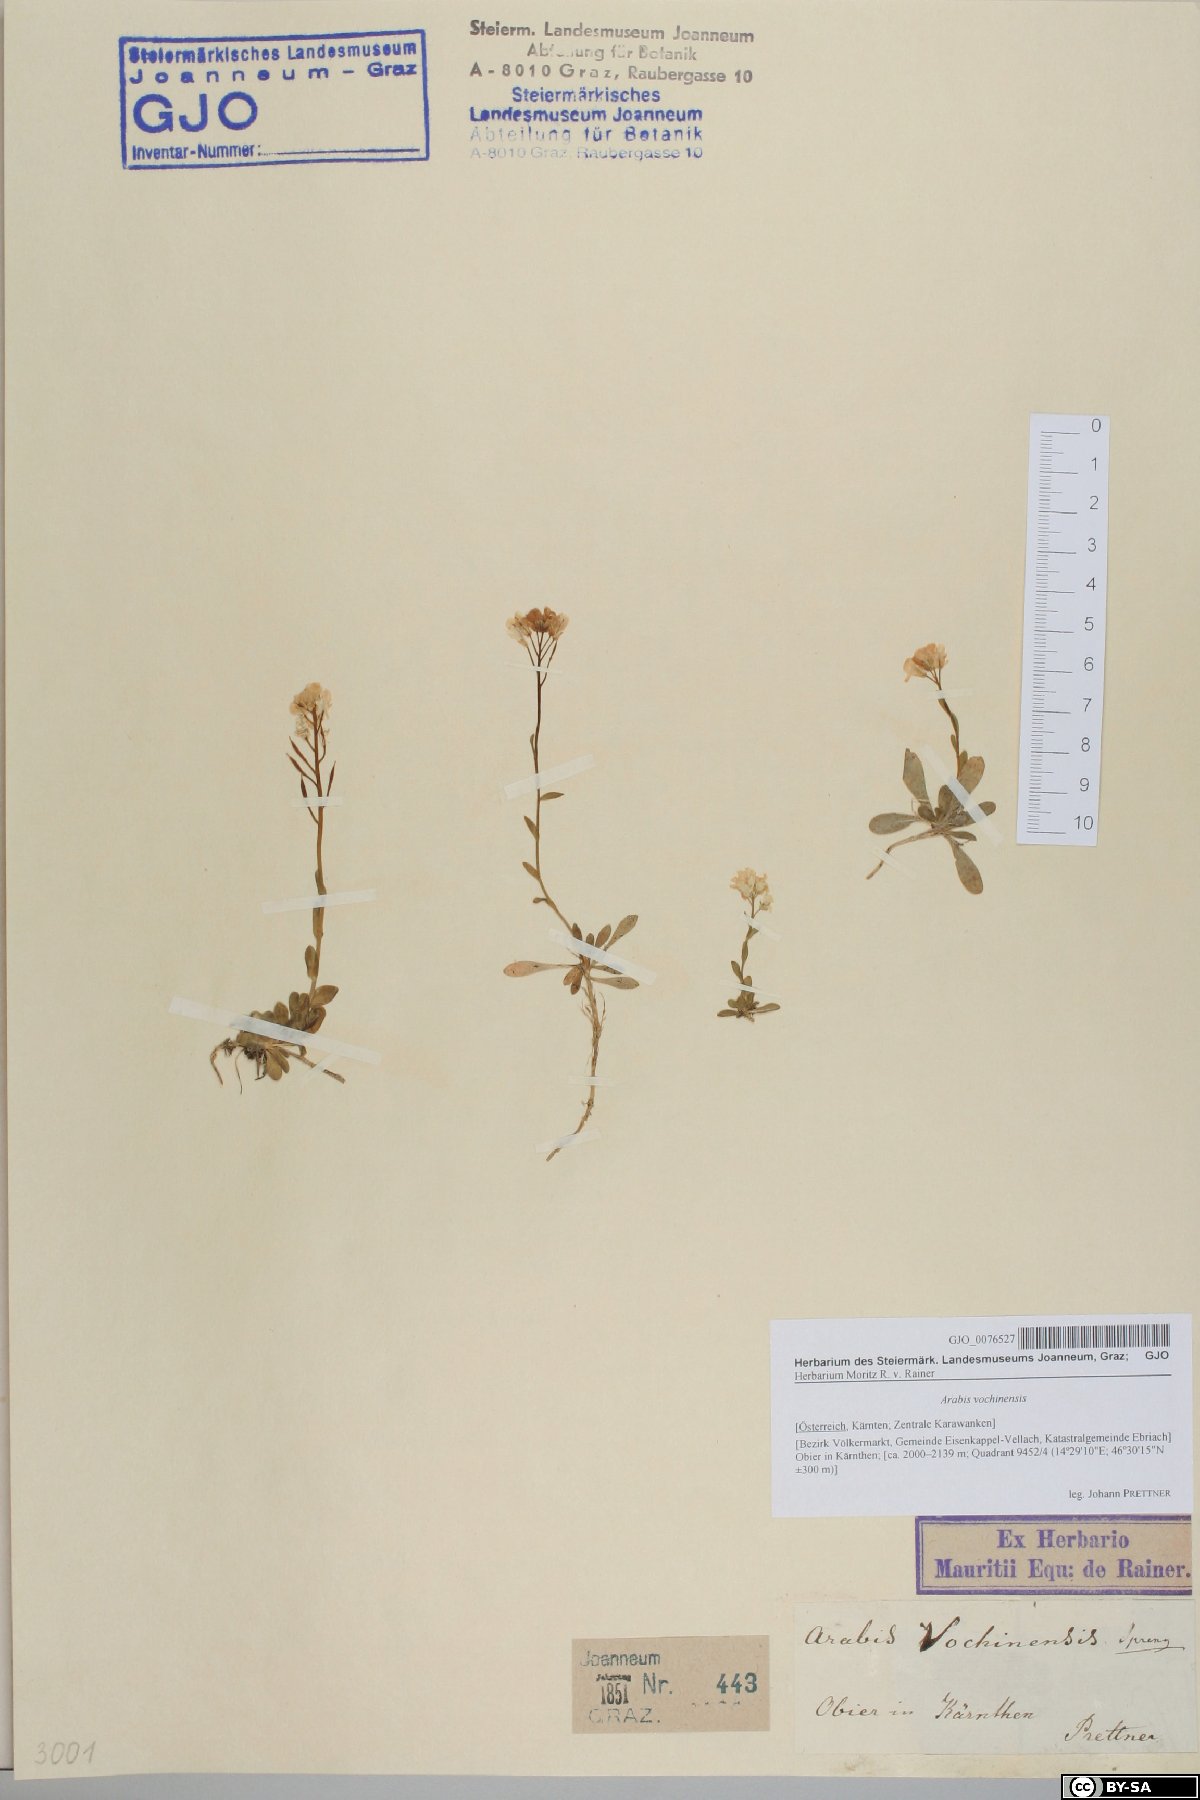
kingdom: Plantae
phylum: Tracheophyta
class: Magnoliopsida
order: Brassicales
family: Brassicaceae
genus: Arabis
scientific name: Arabis vochinensis
